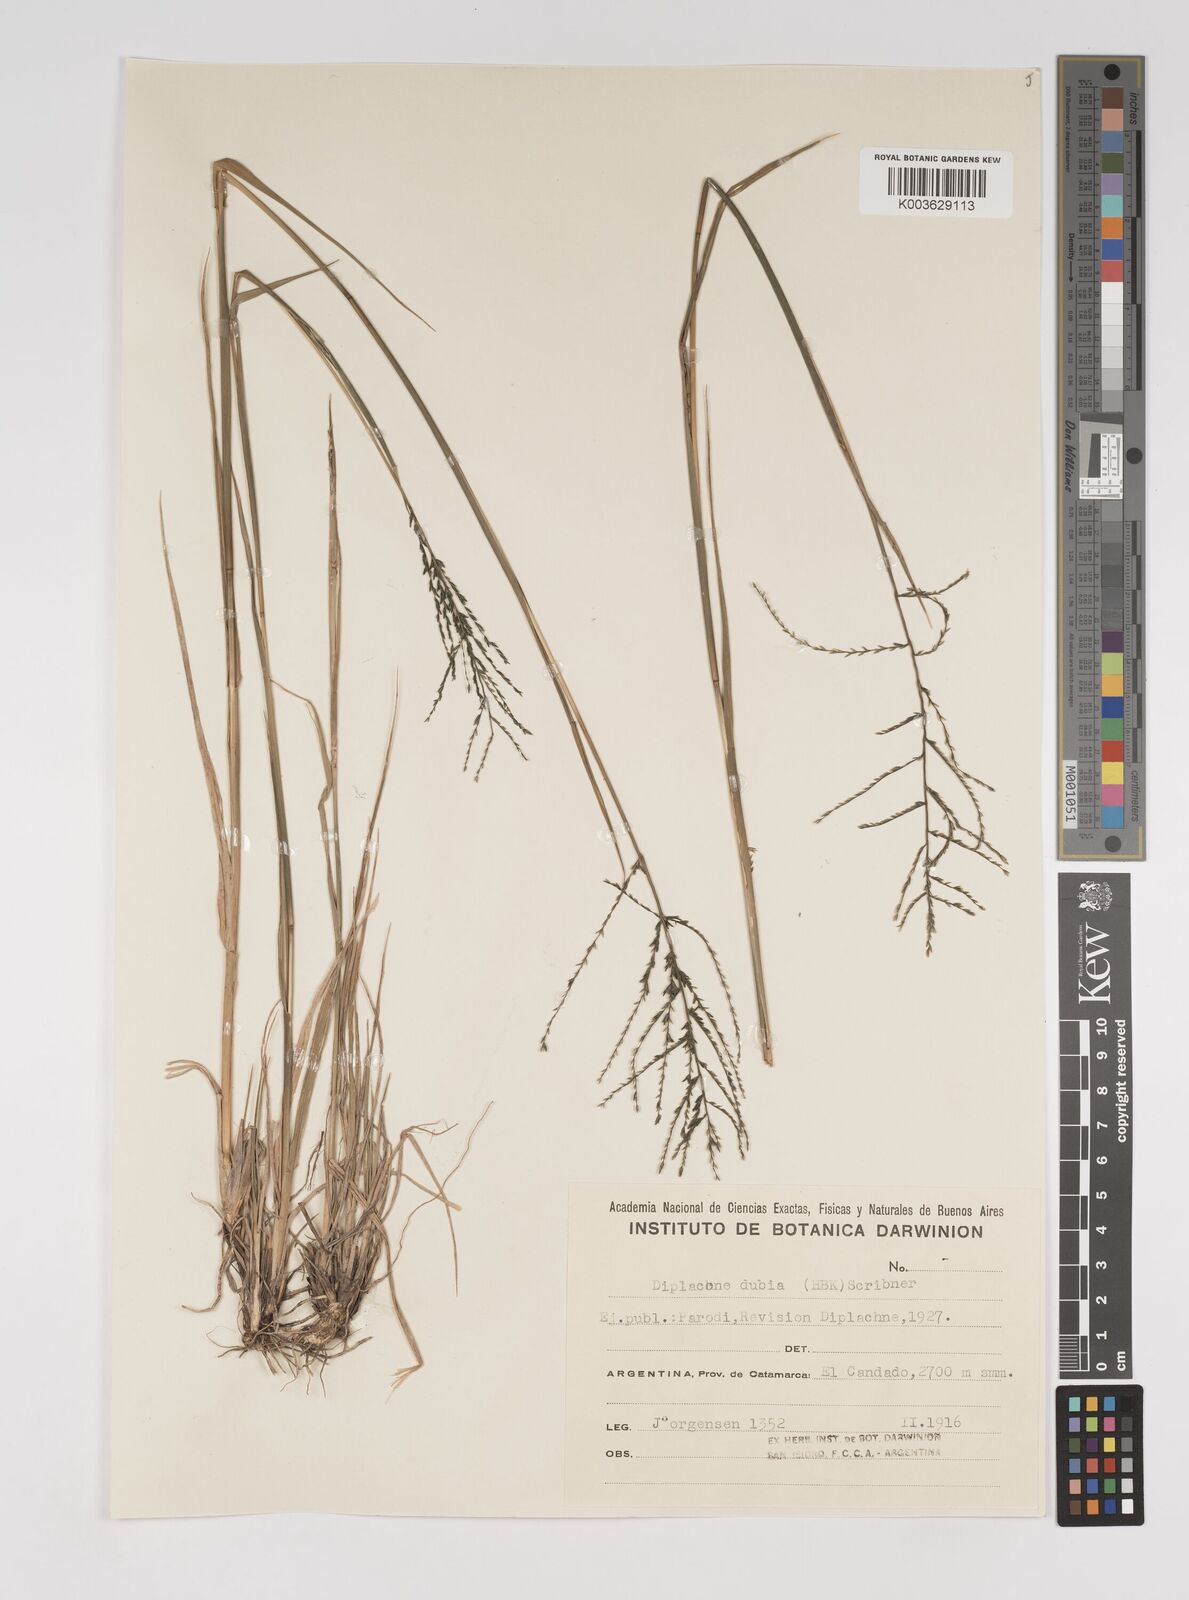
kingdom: Plantae
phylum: Tracheophyta
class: Liliopsida
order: Poales
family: Poaceae
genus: Disakisperma
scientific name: Disakisperma dubium
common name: Green sprangletop
